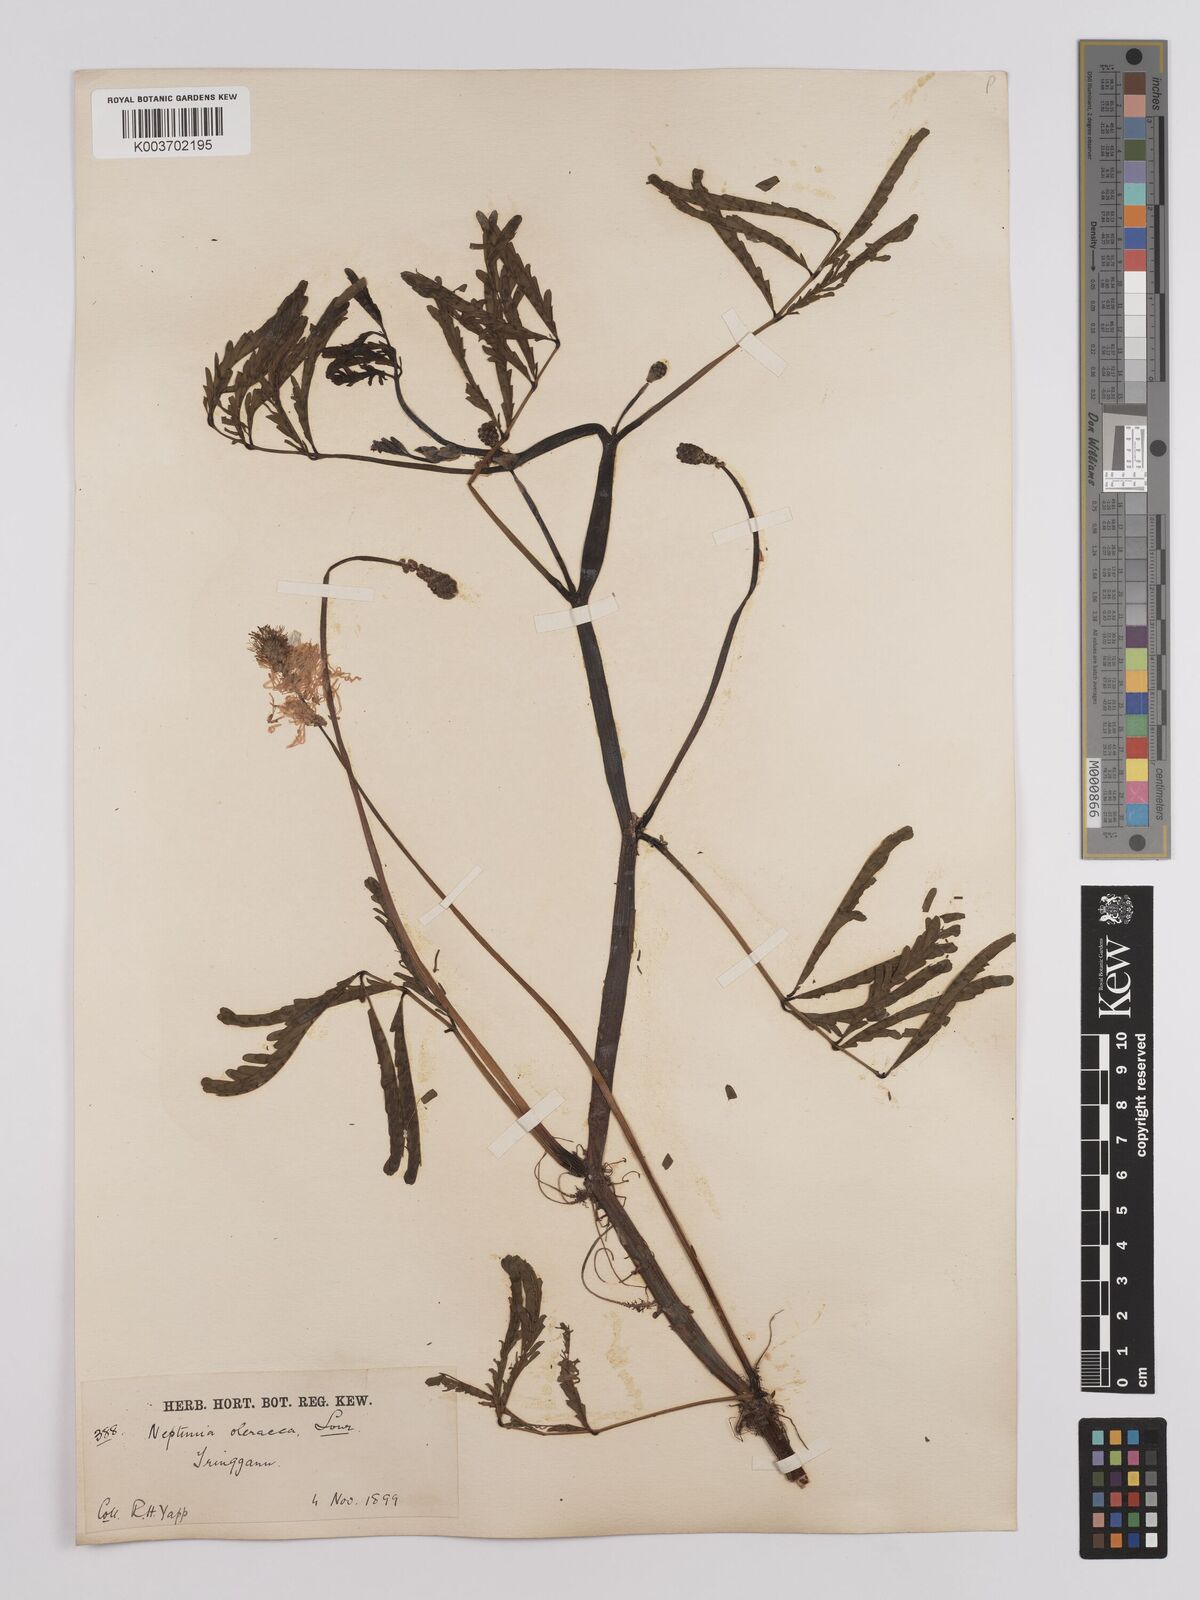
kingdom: Plantae
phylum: Tracheophyta
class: Magnoliopsida
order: Fabales
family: Fabaceae
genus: Neptunia
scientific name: Neptunia prostrata
